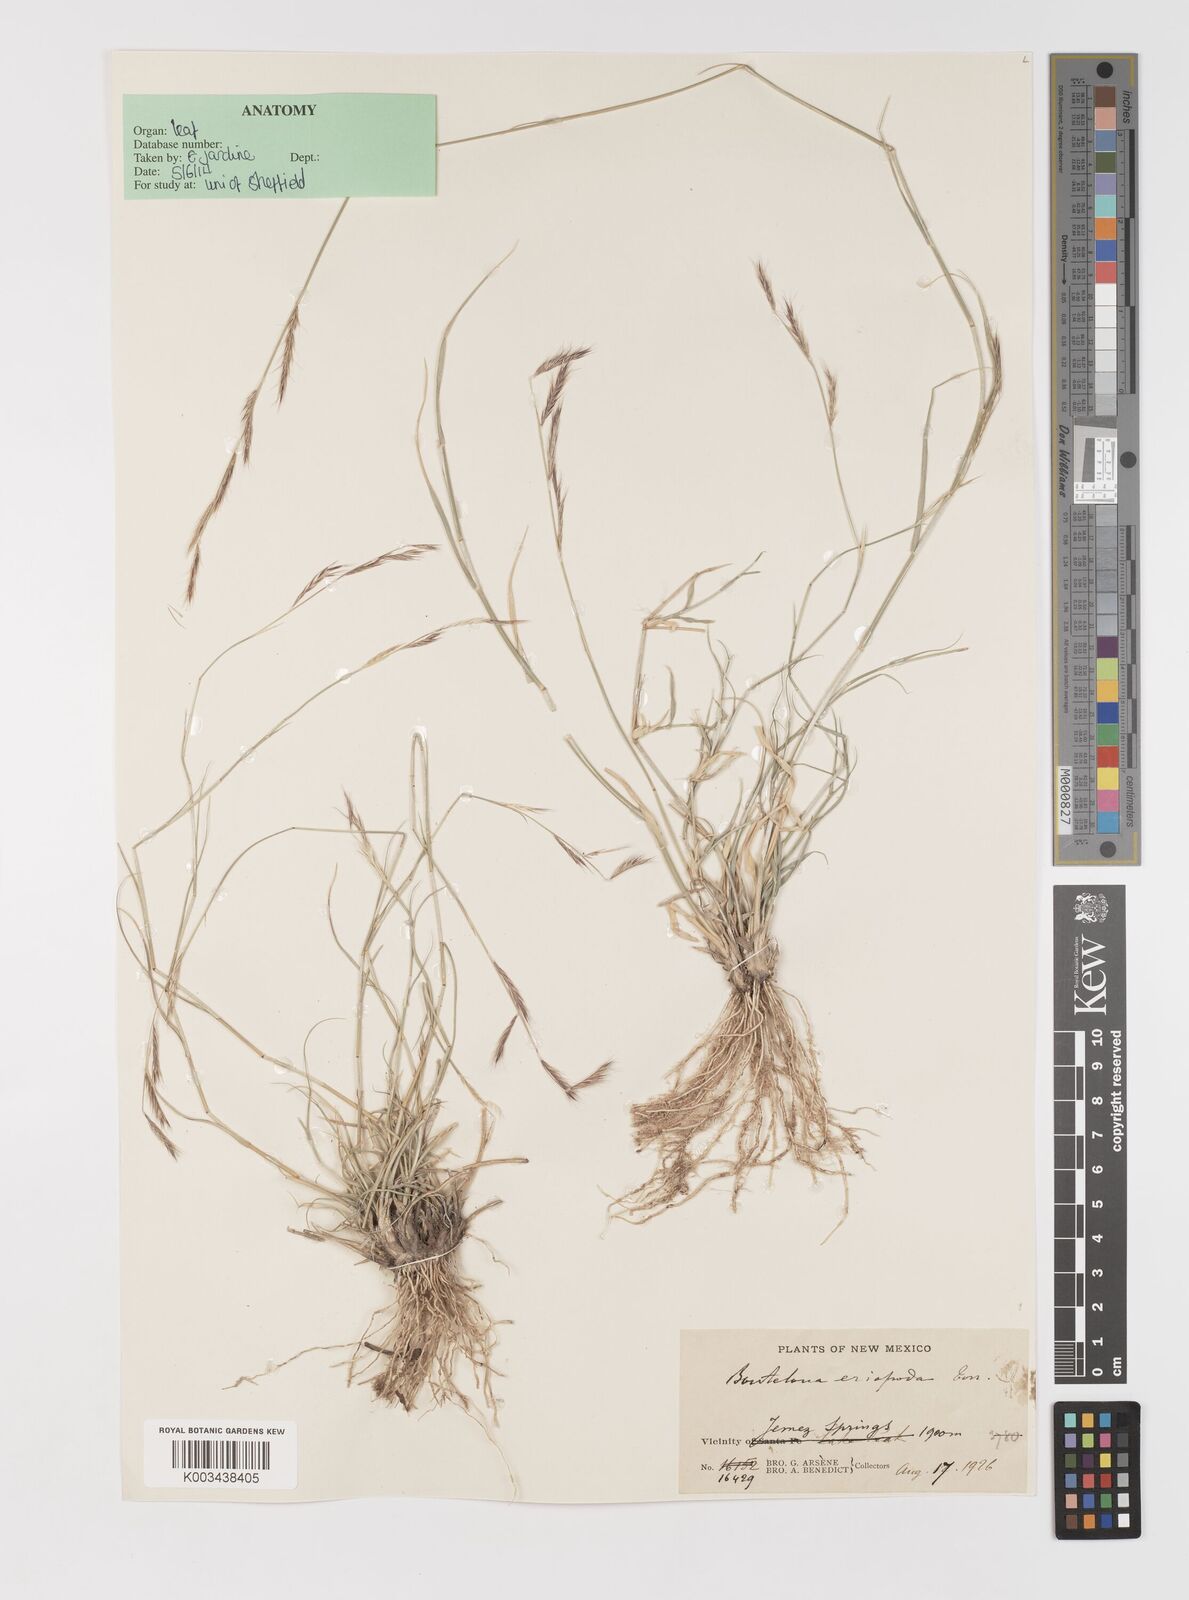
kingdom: Plantae
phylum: Tracheophyta
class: Liliopsida
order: Poales
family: Poaceae
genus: Bouteloua
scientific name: Bouteloua eriopoda
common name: Woolly foot grama
